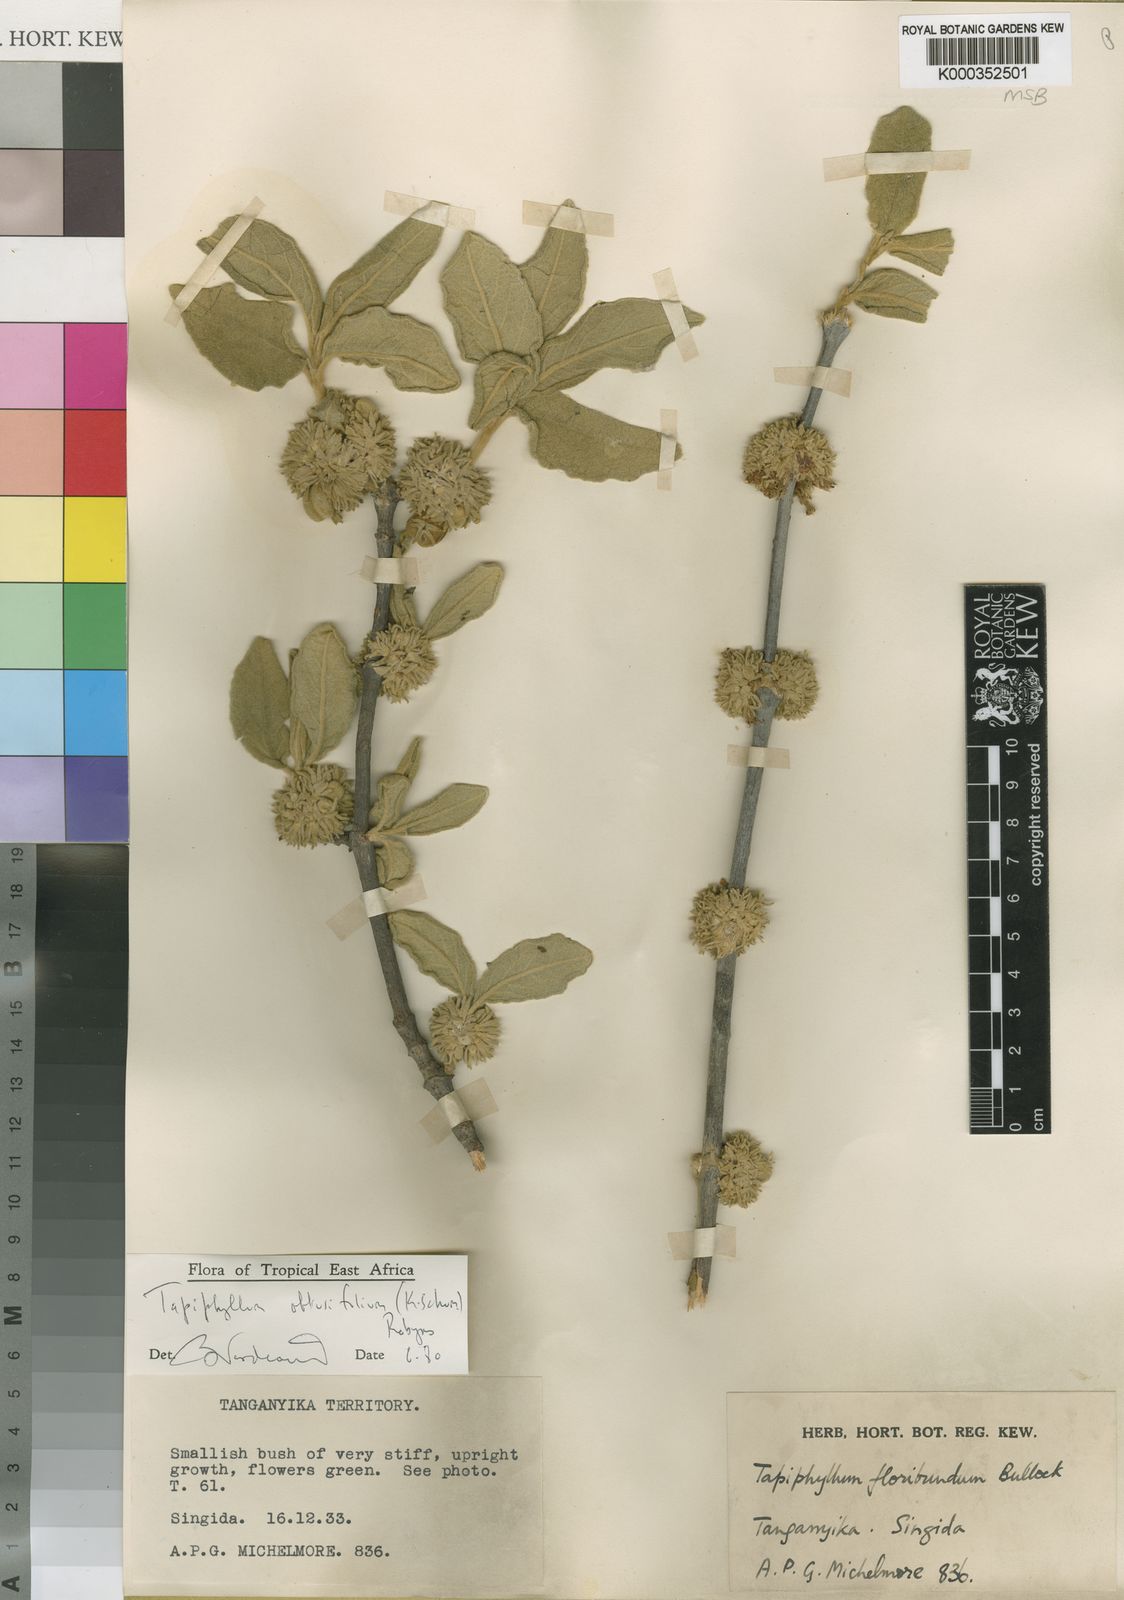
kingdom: Plantae
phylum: Tracheophyta
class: Magnoliopsida
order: Gentianales
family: Rubiaceae
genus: Vangueria
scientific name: Vangueria
